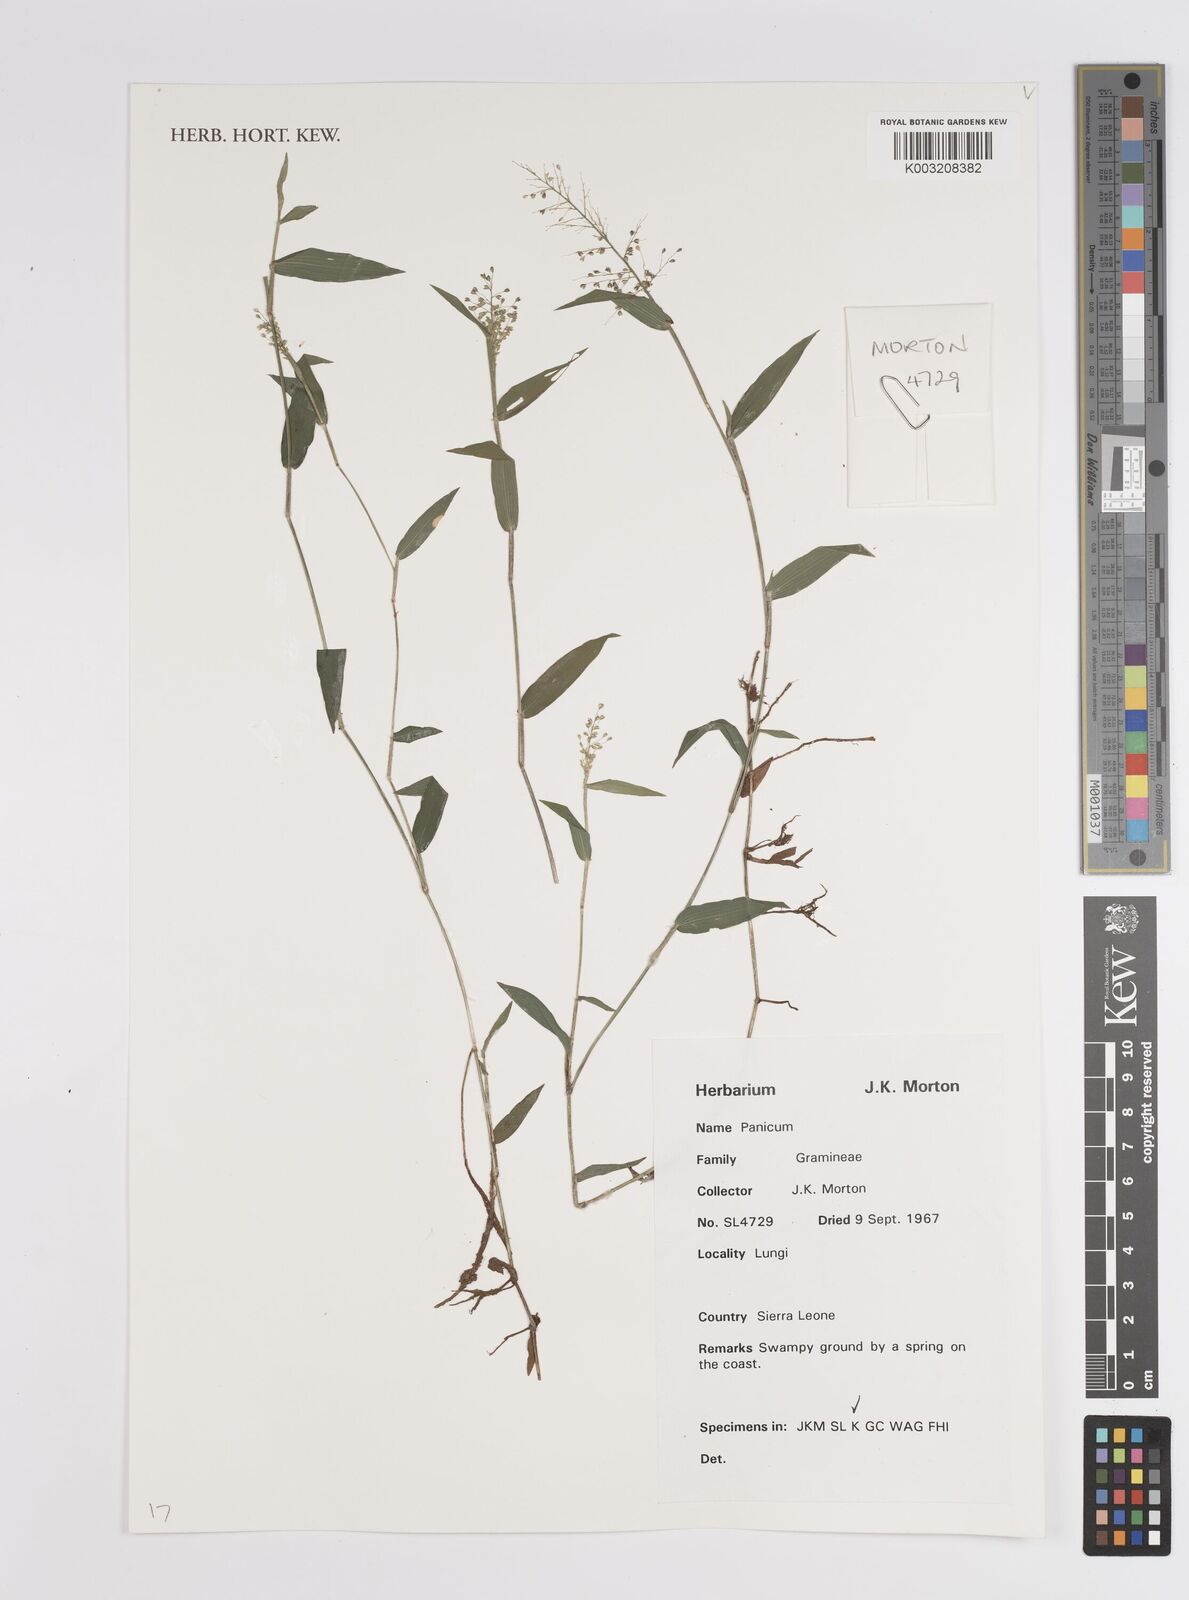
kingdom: Plantae
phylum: Tracheophyta
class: Liliopsida
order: Poales
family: Poaceae
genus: Panicum
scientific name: Panicum
